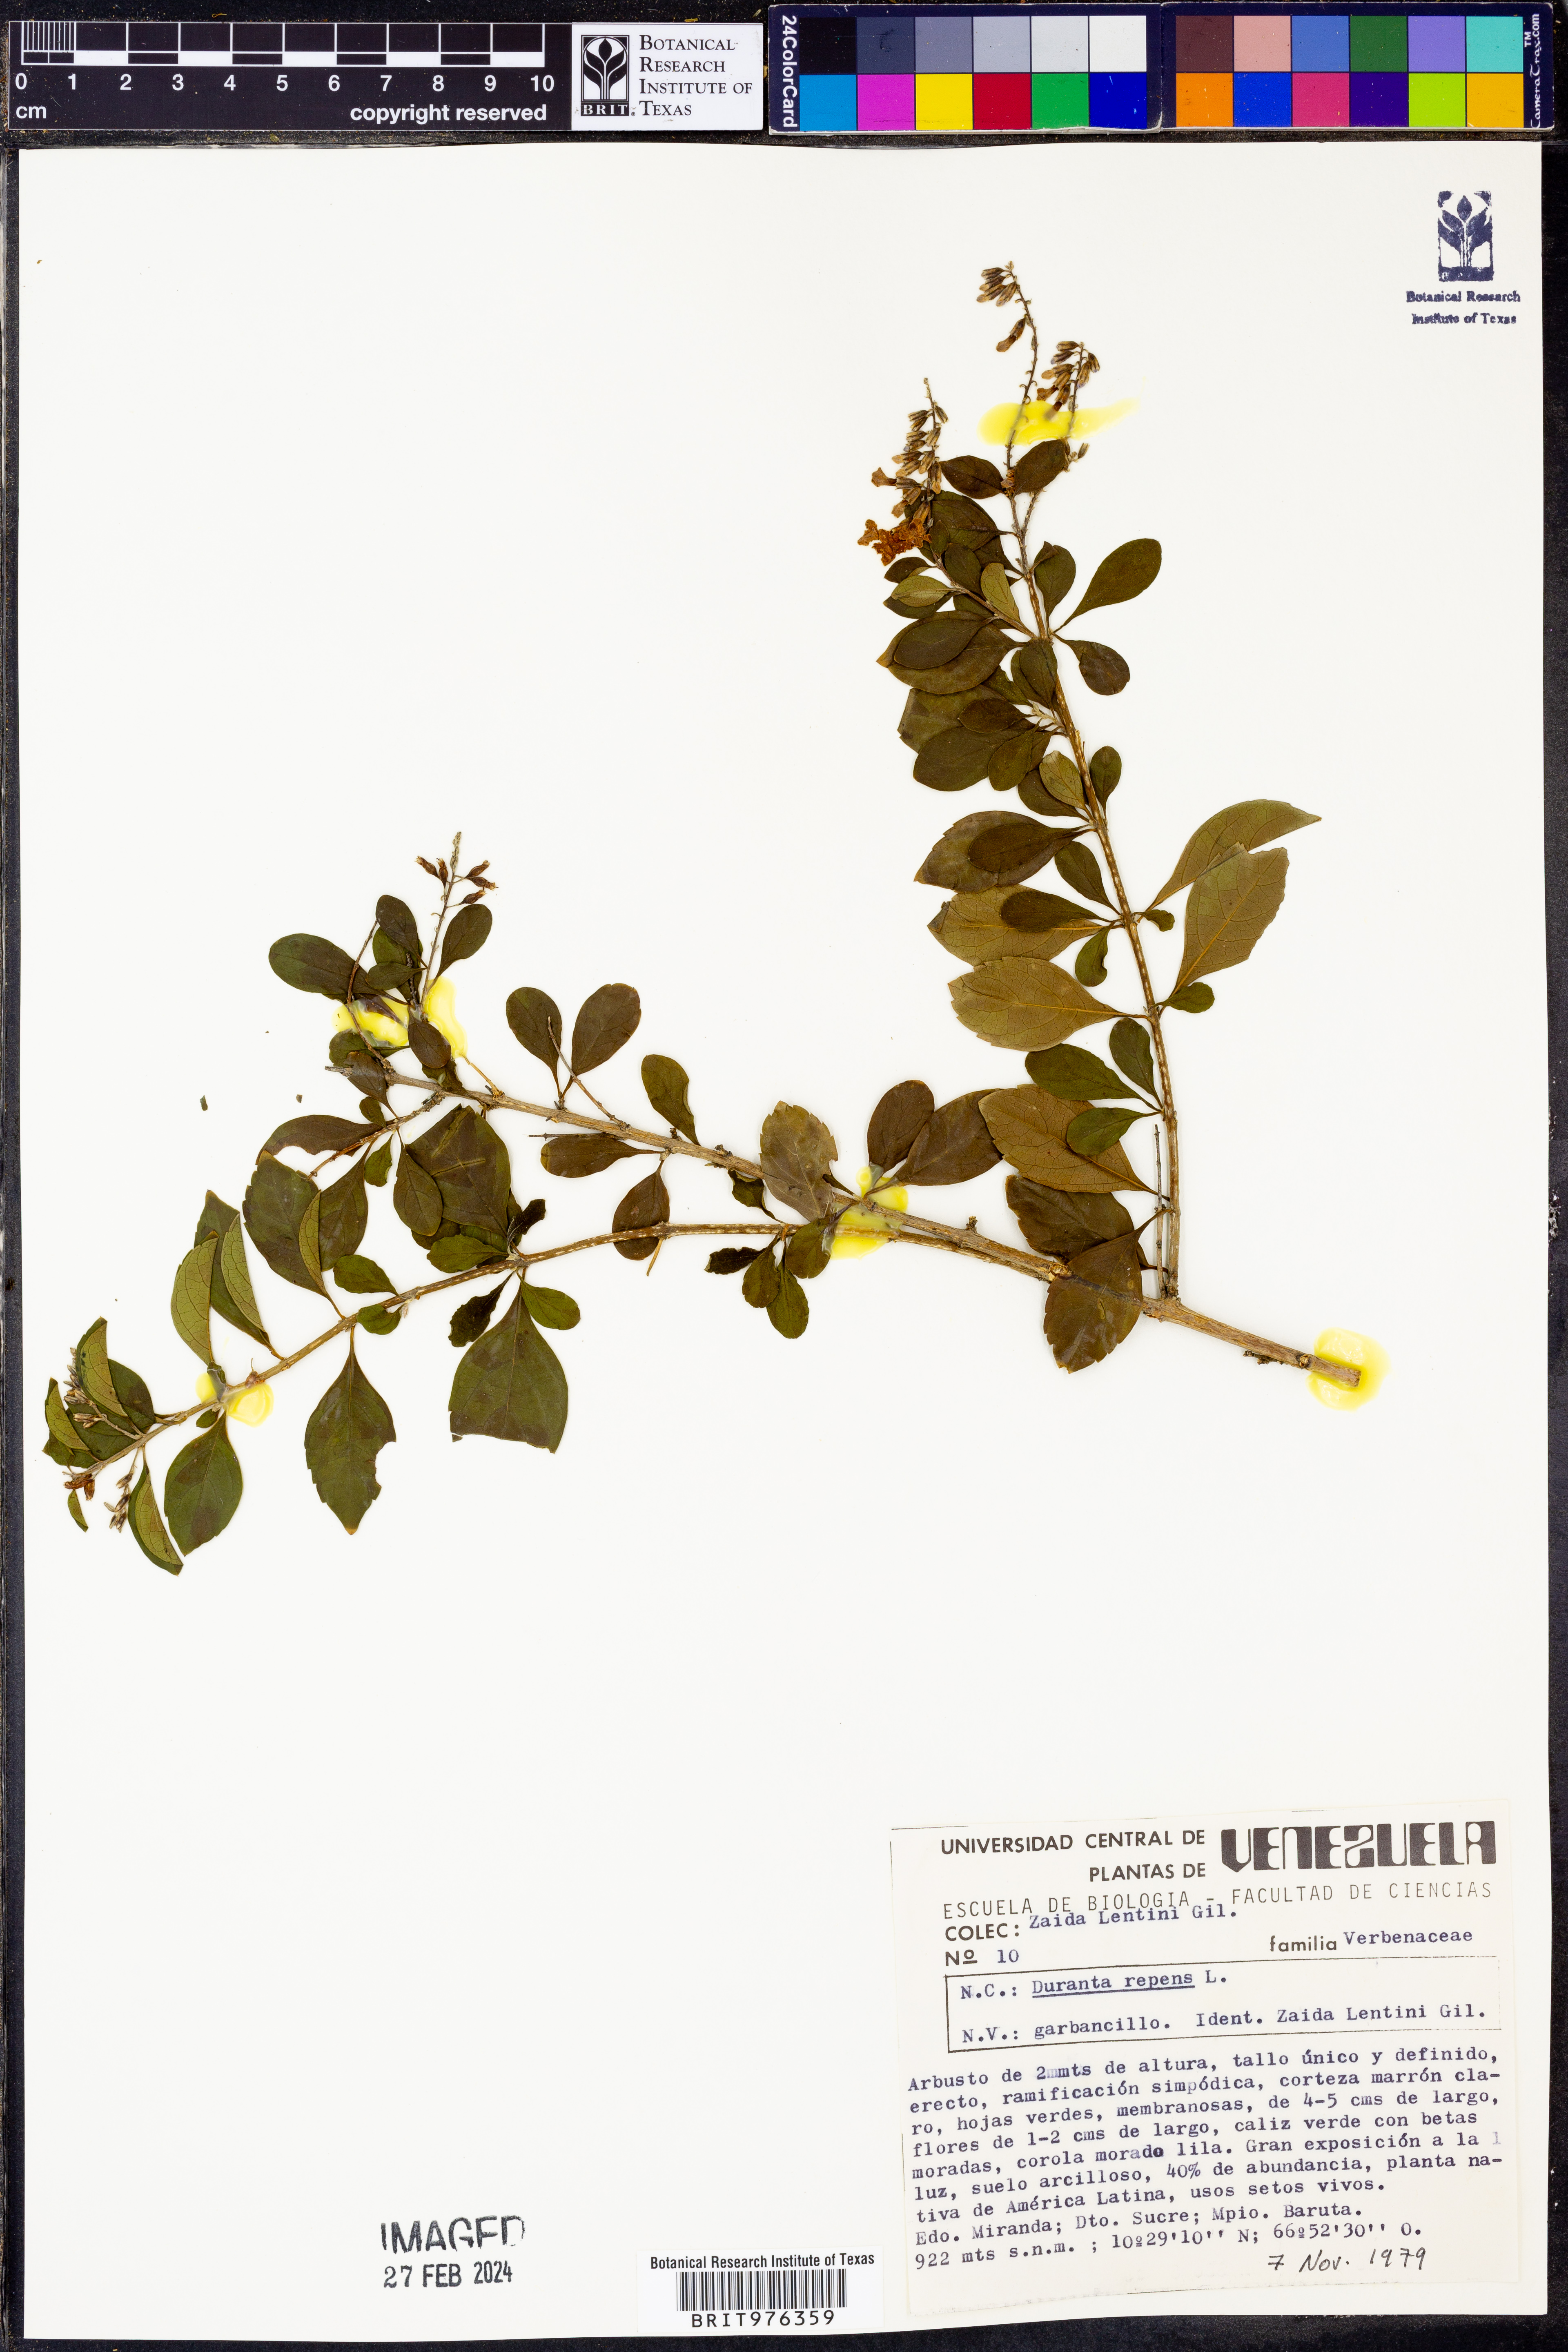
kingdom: Plantae
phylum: Tracheophyta
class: Magnoliopsida
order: Lamiales
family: Verbenaceae
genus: Duranta
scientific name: Duranta
